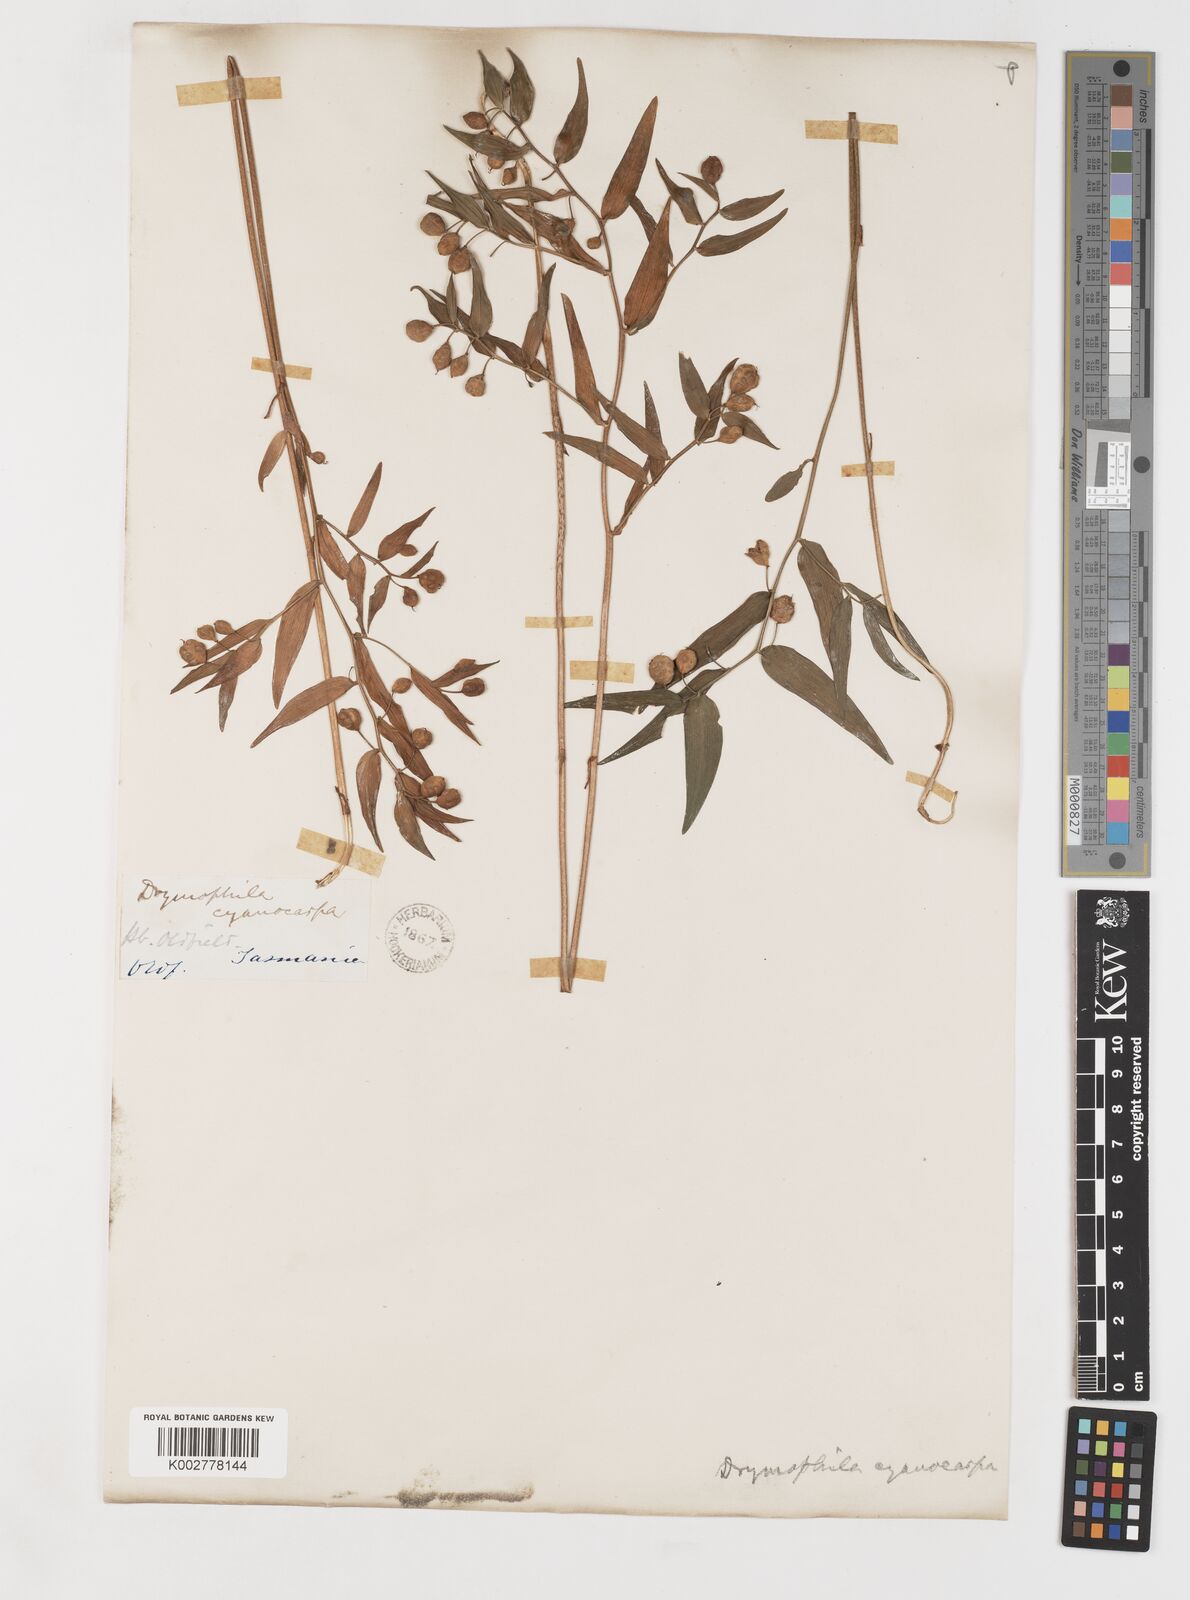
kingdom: Plantae
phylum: Tracheophyta
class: Liliopsida
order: Liliales
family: Alstroemeriaceae
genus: Drymophila
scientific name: Drymophila cyanocarpa
